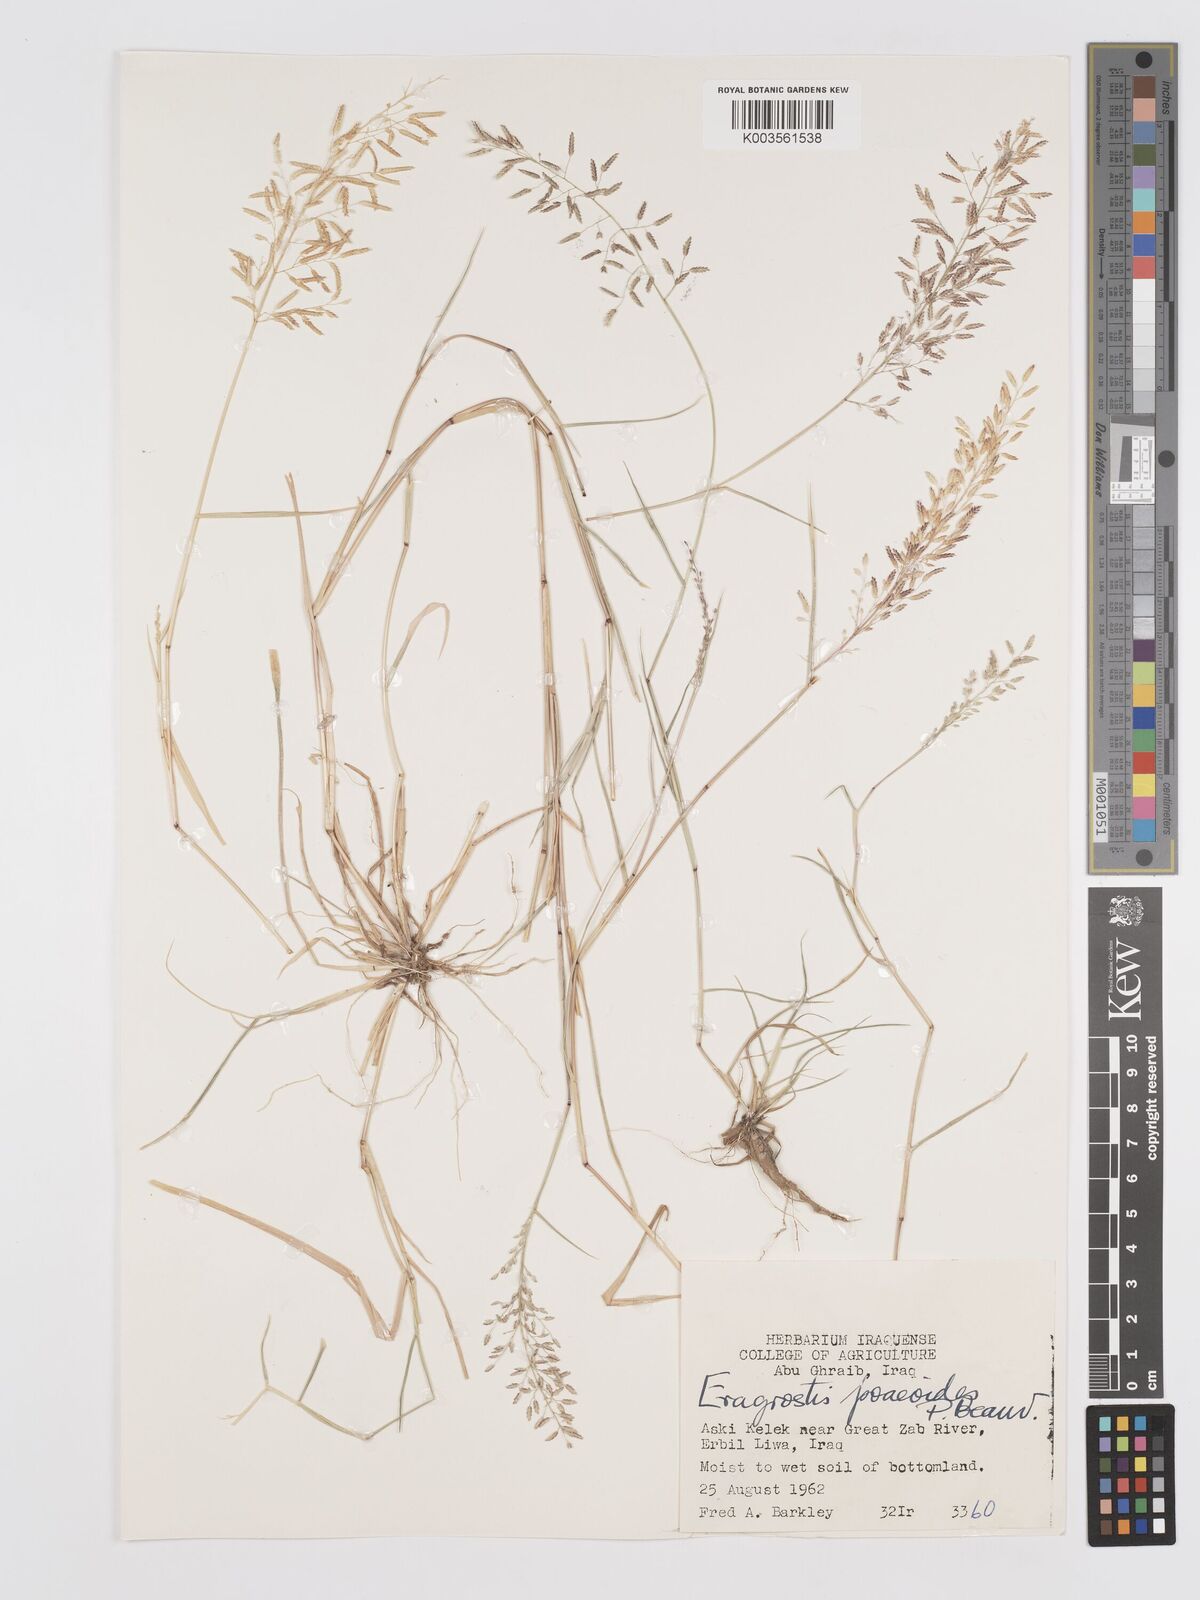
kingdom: Plantae
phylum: Tracheophyta
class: Liliopsida
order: Poales
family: Poaceae
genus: Eragrostis
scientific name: Eragrostis minor
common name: Small love-grass
